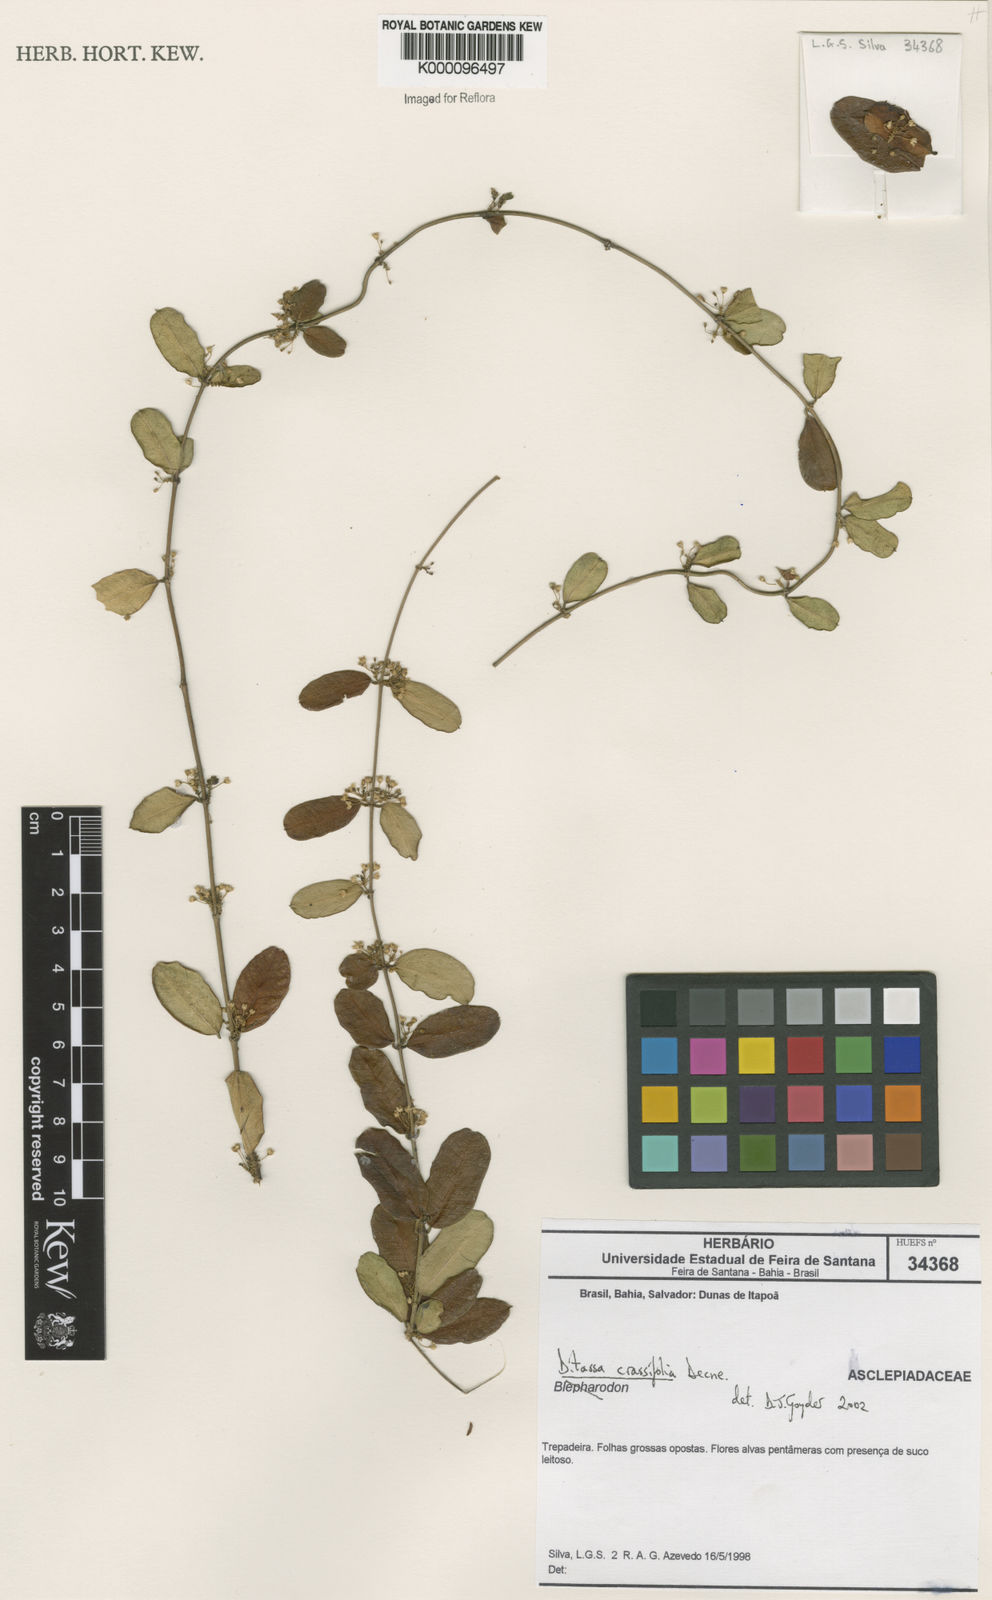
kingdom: Plantae
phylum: Tracheophyta
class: Magnoliopsida
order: Gentianales
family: Apocynaceae
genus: Ditassa
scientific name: Ditassa crassifolia
